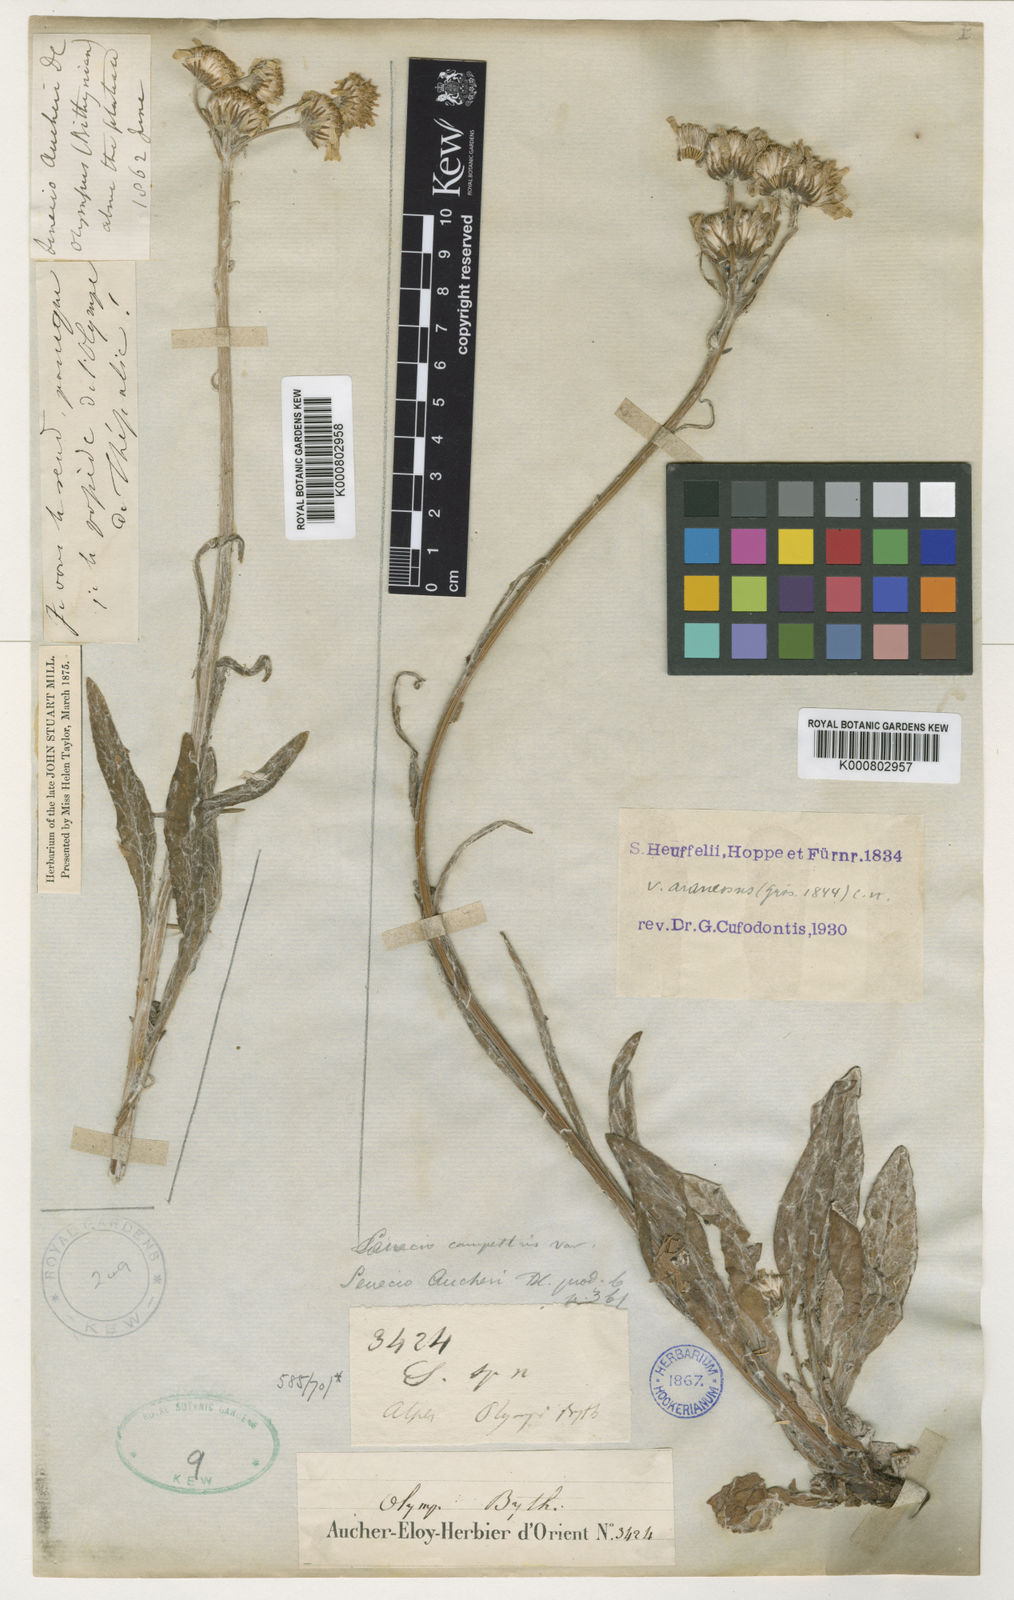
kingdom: Plantae
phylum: Tracheophyta
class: Magnoliopsida
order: Asterales
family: Asteraceae
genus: Tephroseris
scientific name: Tephroseris papposa
